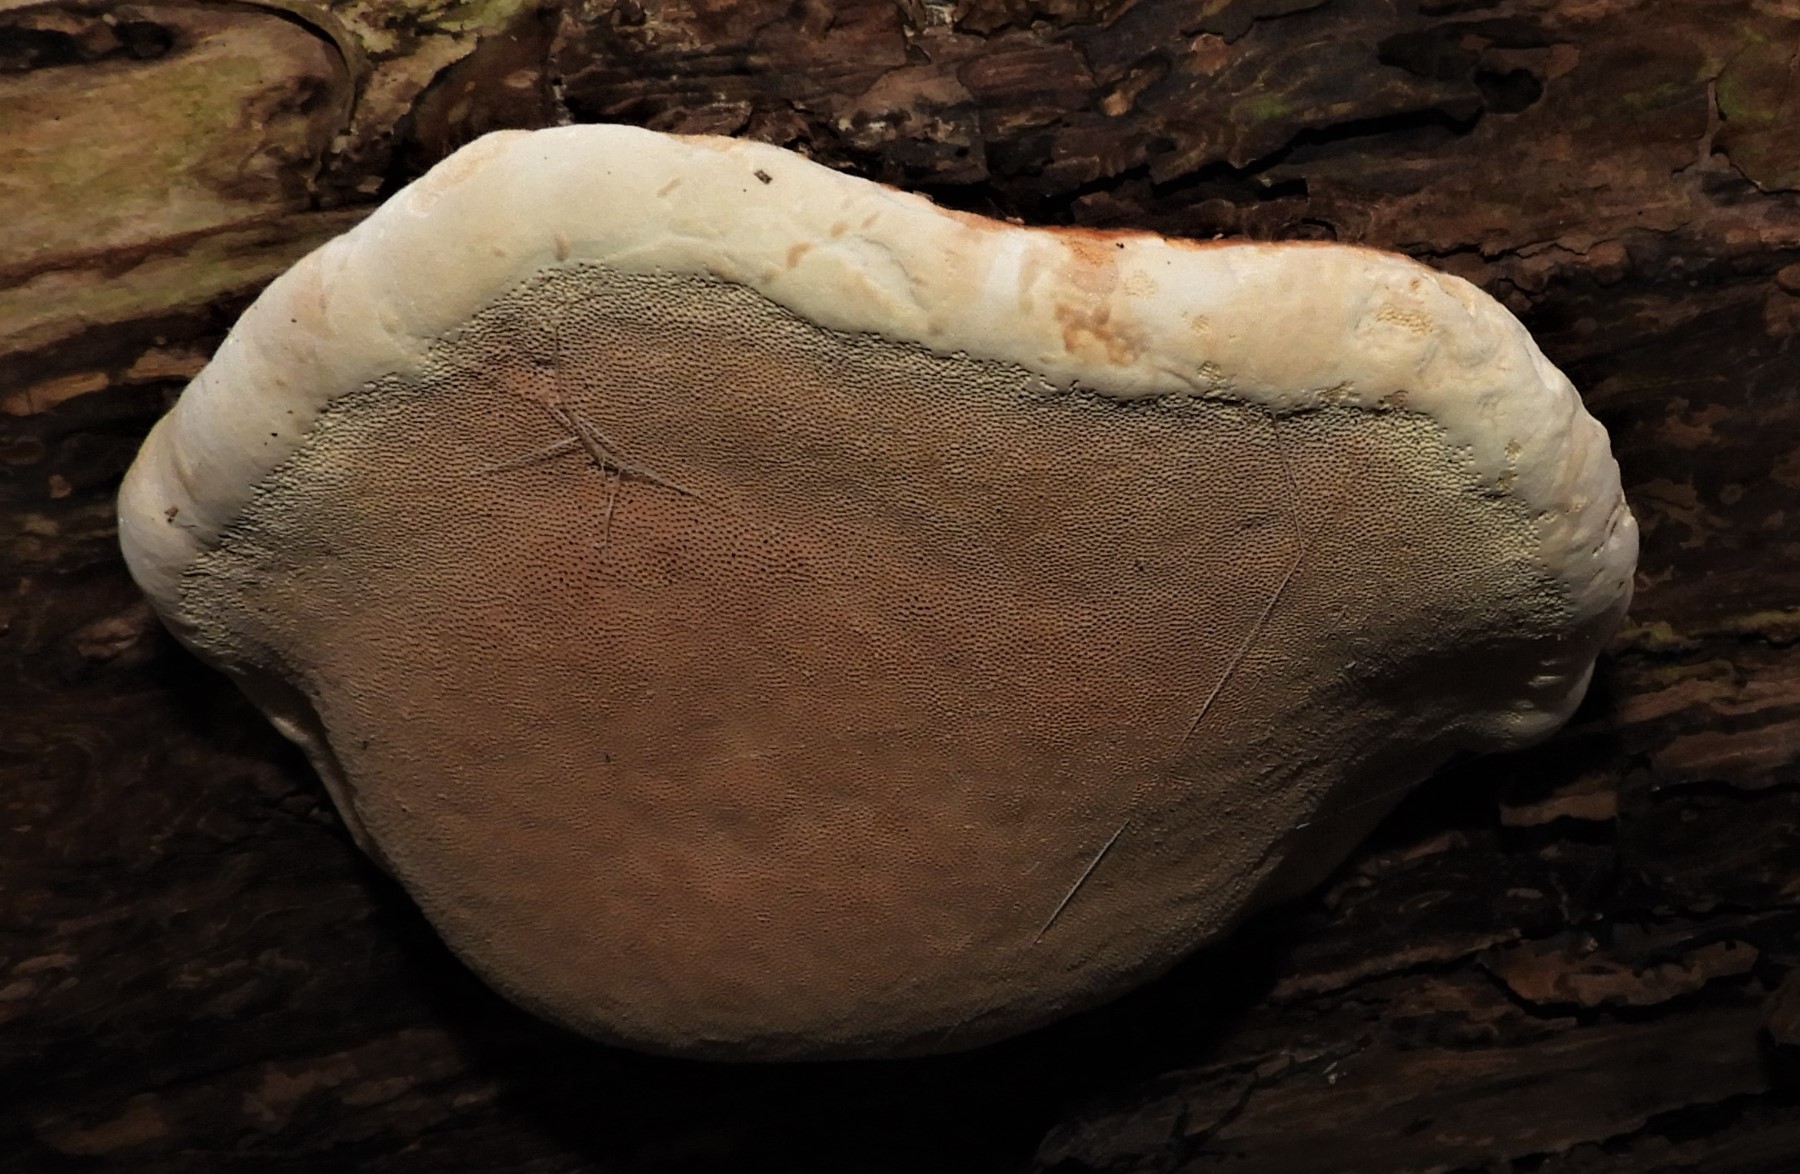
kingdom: Fungi
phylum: Basidiomycota
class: Agaricomycetes
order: Polyporales
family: Fomitopsidaceae
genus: Fomitopsis
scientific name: Fomitopsis pinicola
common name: randbæltet hovporesvamp
